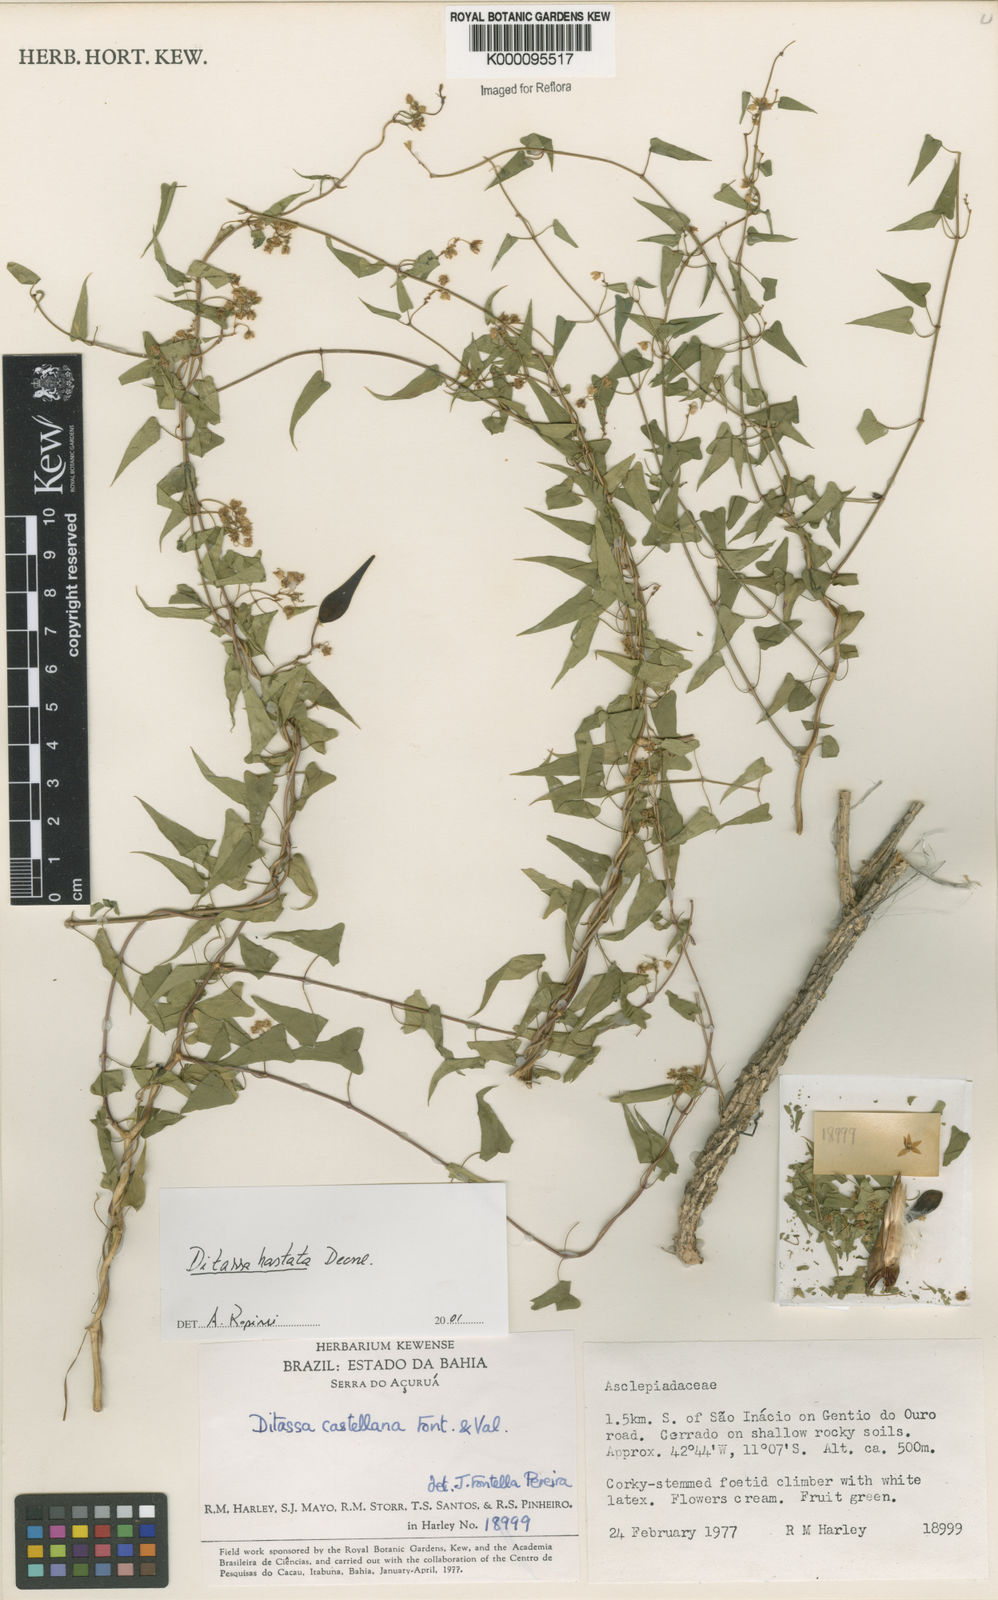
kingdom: Plantae
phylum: Tracheophyta
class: Magnoliopsida
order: Gentianales
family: Apocynaceae
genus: Ditassa
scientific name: Ditassa hastata
